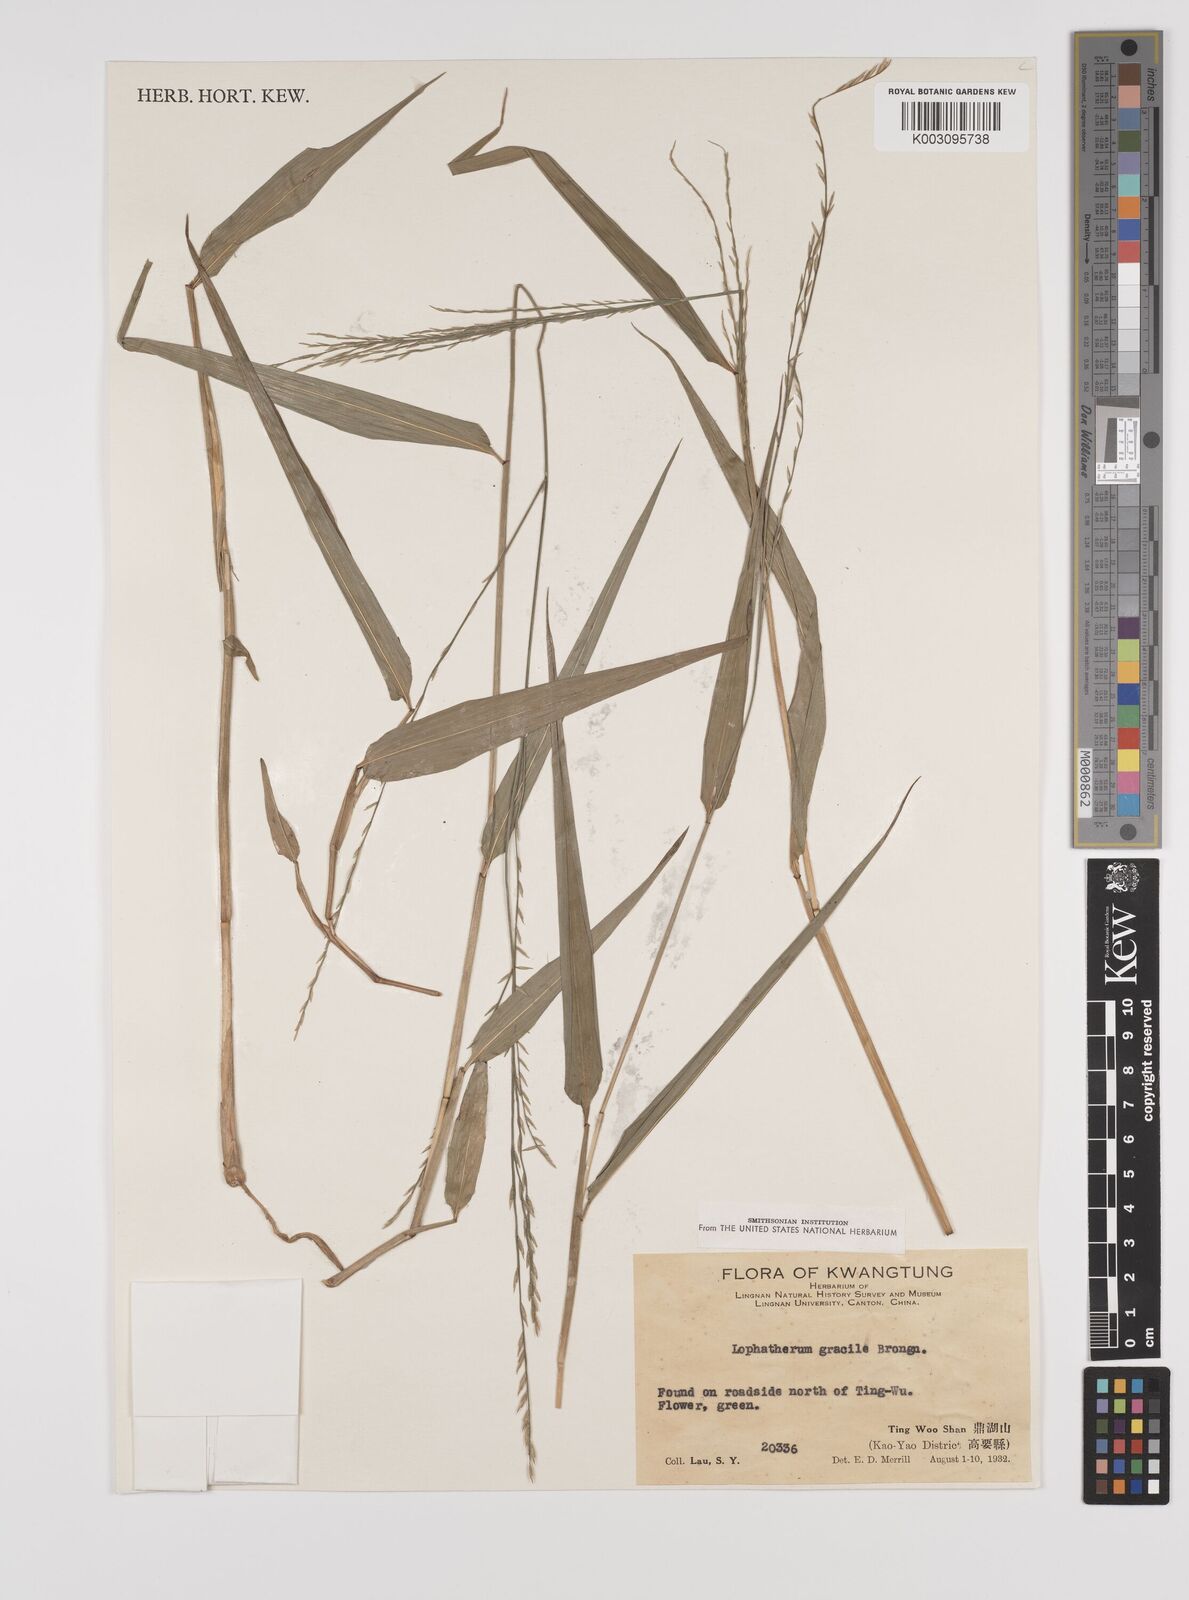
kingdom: Plantae
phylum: Tracheophyta
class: Liliopsida
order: Poales
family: Poaceae
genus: Lophatherum
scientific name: Lophatherum gracile
